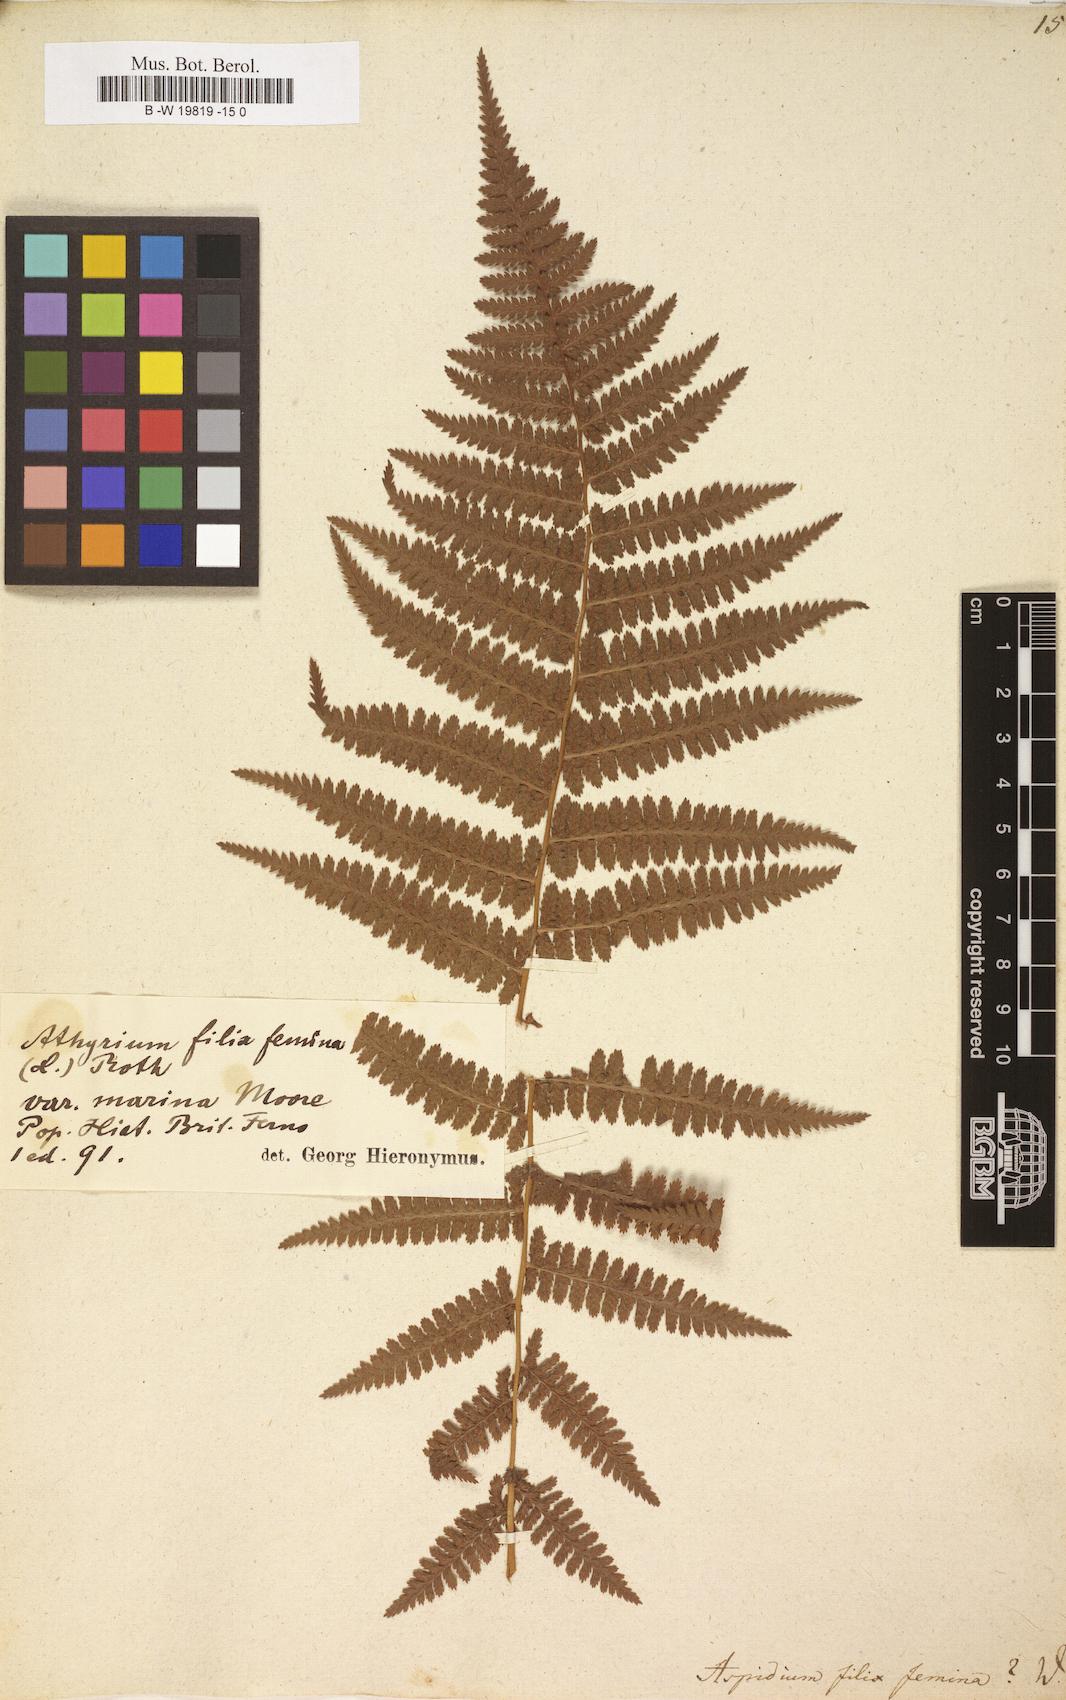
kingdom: Plantae
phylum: Tracheophyta
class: Polypodiopsida
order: Polypodiales
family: Athyriaceae
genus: Athyrium
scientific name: Athyrium filix-femina
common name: Lady fern
